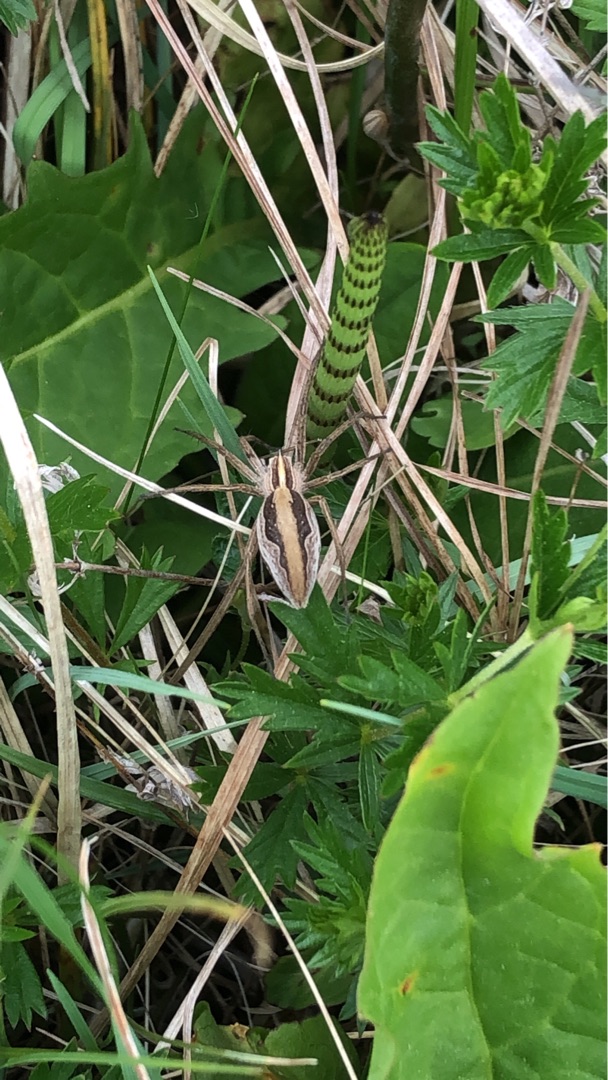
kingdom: Animalia
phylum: Arthropoda
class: Arachnida
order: Araneae
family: Pisauridae
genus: Pisaura
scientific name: Pisaura mirabilis
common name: Almindelig rovedderkop
